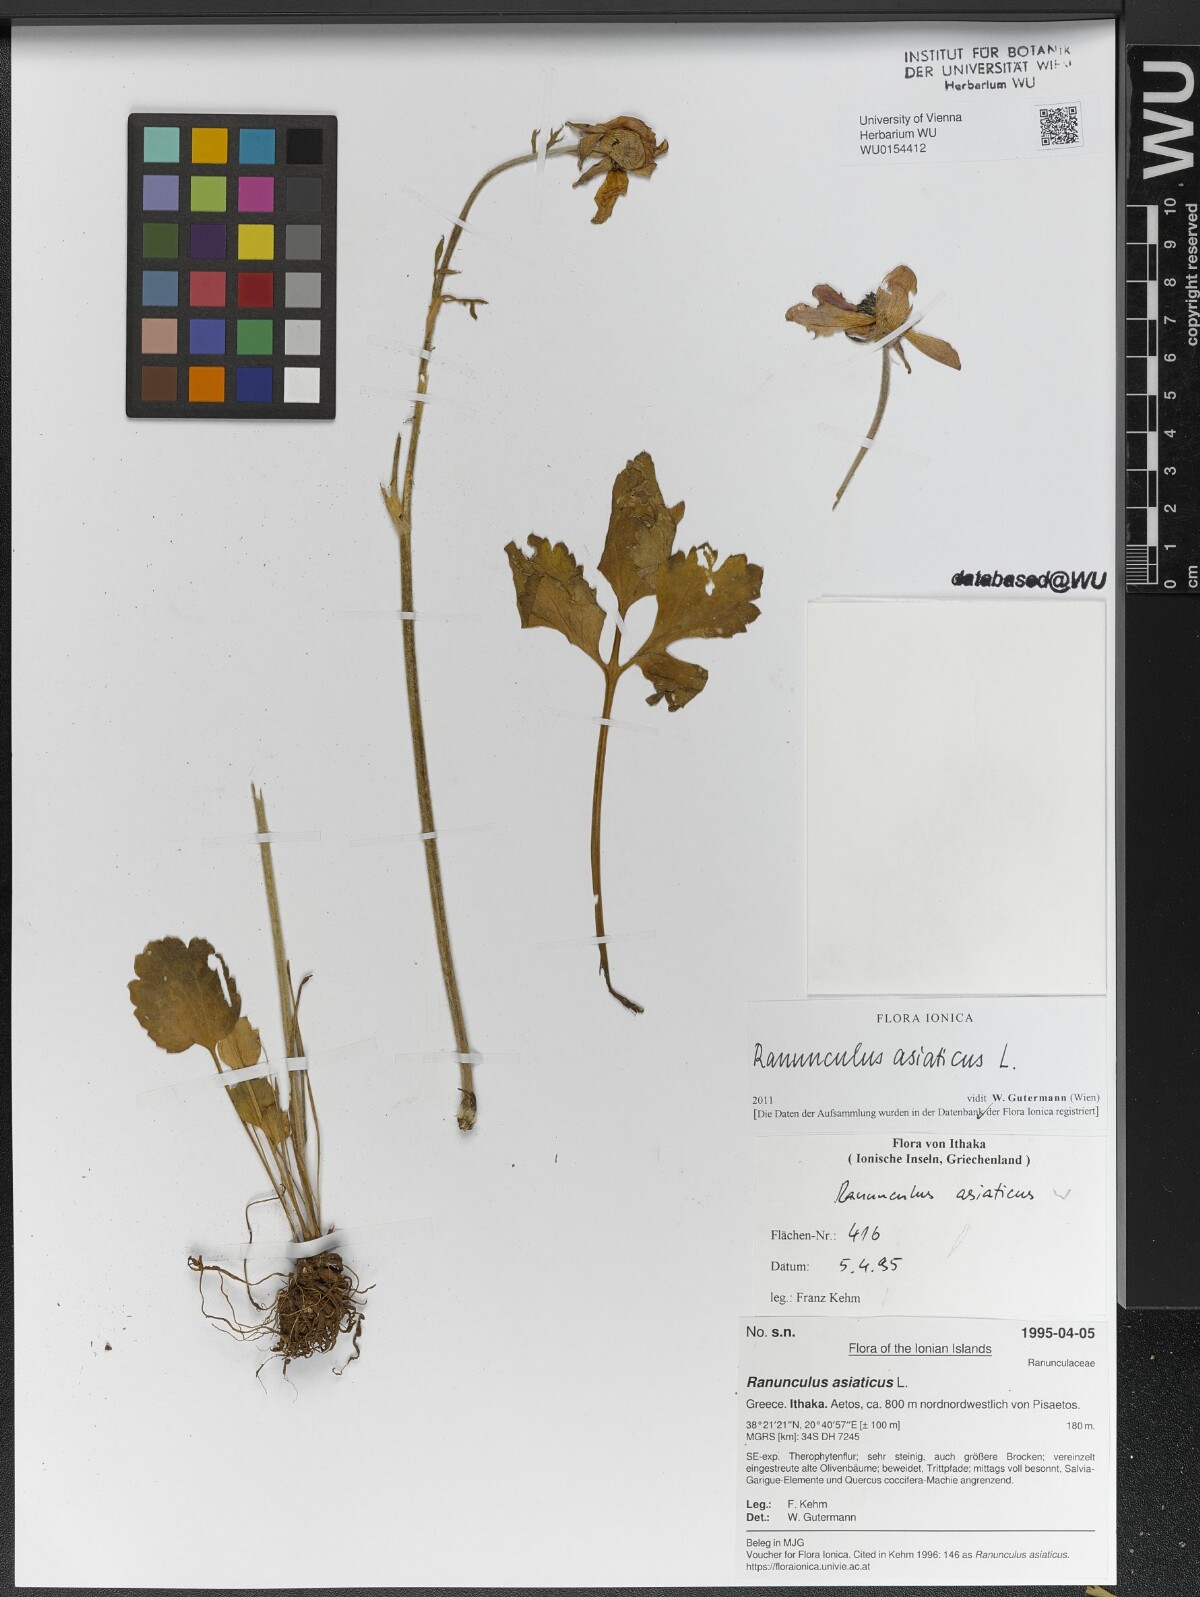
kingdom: Plantae
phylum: Tracheophyta
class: Magnoliopsida
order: Ranunculales
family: Ranunculaceae
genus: Ranunculus
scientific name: Ranunculus asiaticus
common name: Persian buttercup
